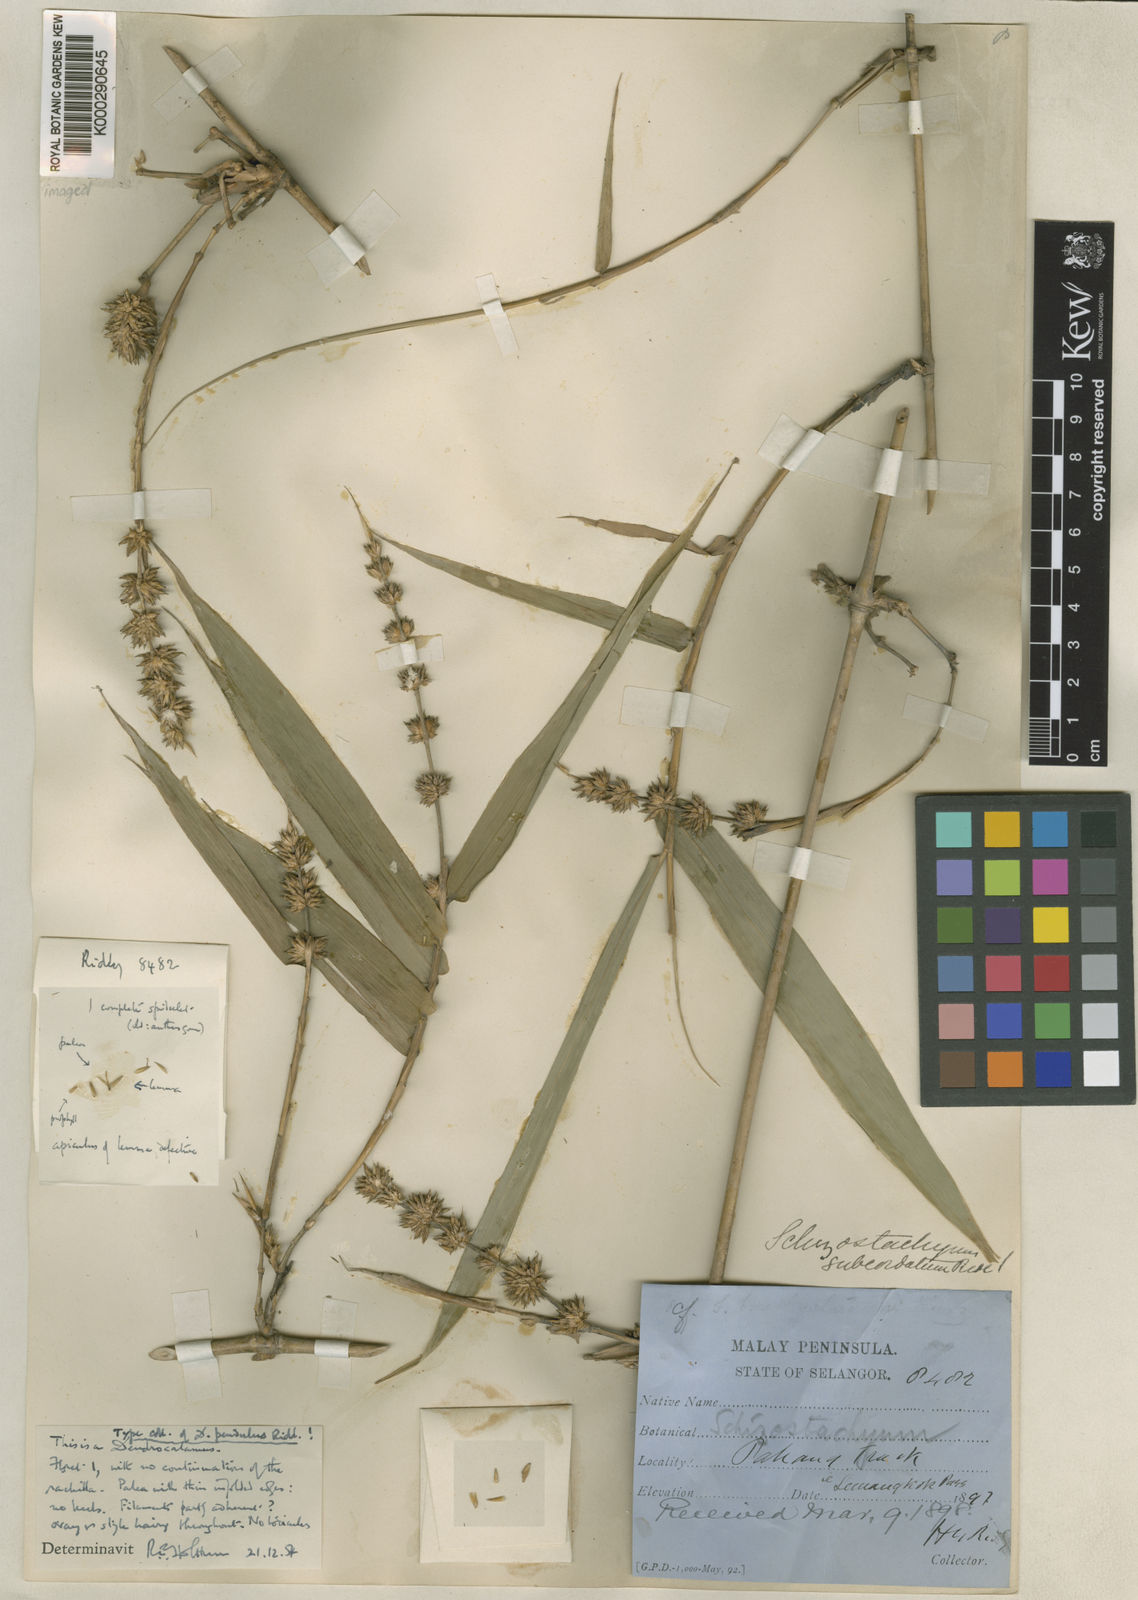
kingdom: Plantae
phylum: Tracheophyta
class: Liliopsida
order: Poales
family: Poaceae
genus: Dendrocalamus
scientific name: Dendrocalamus pendulus
